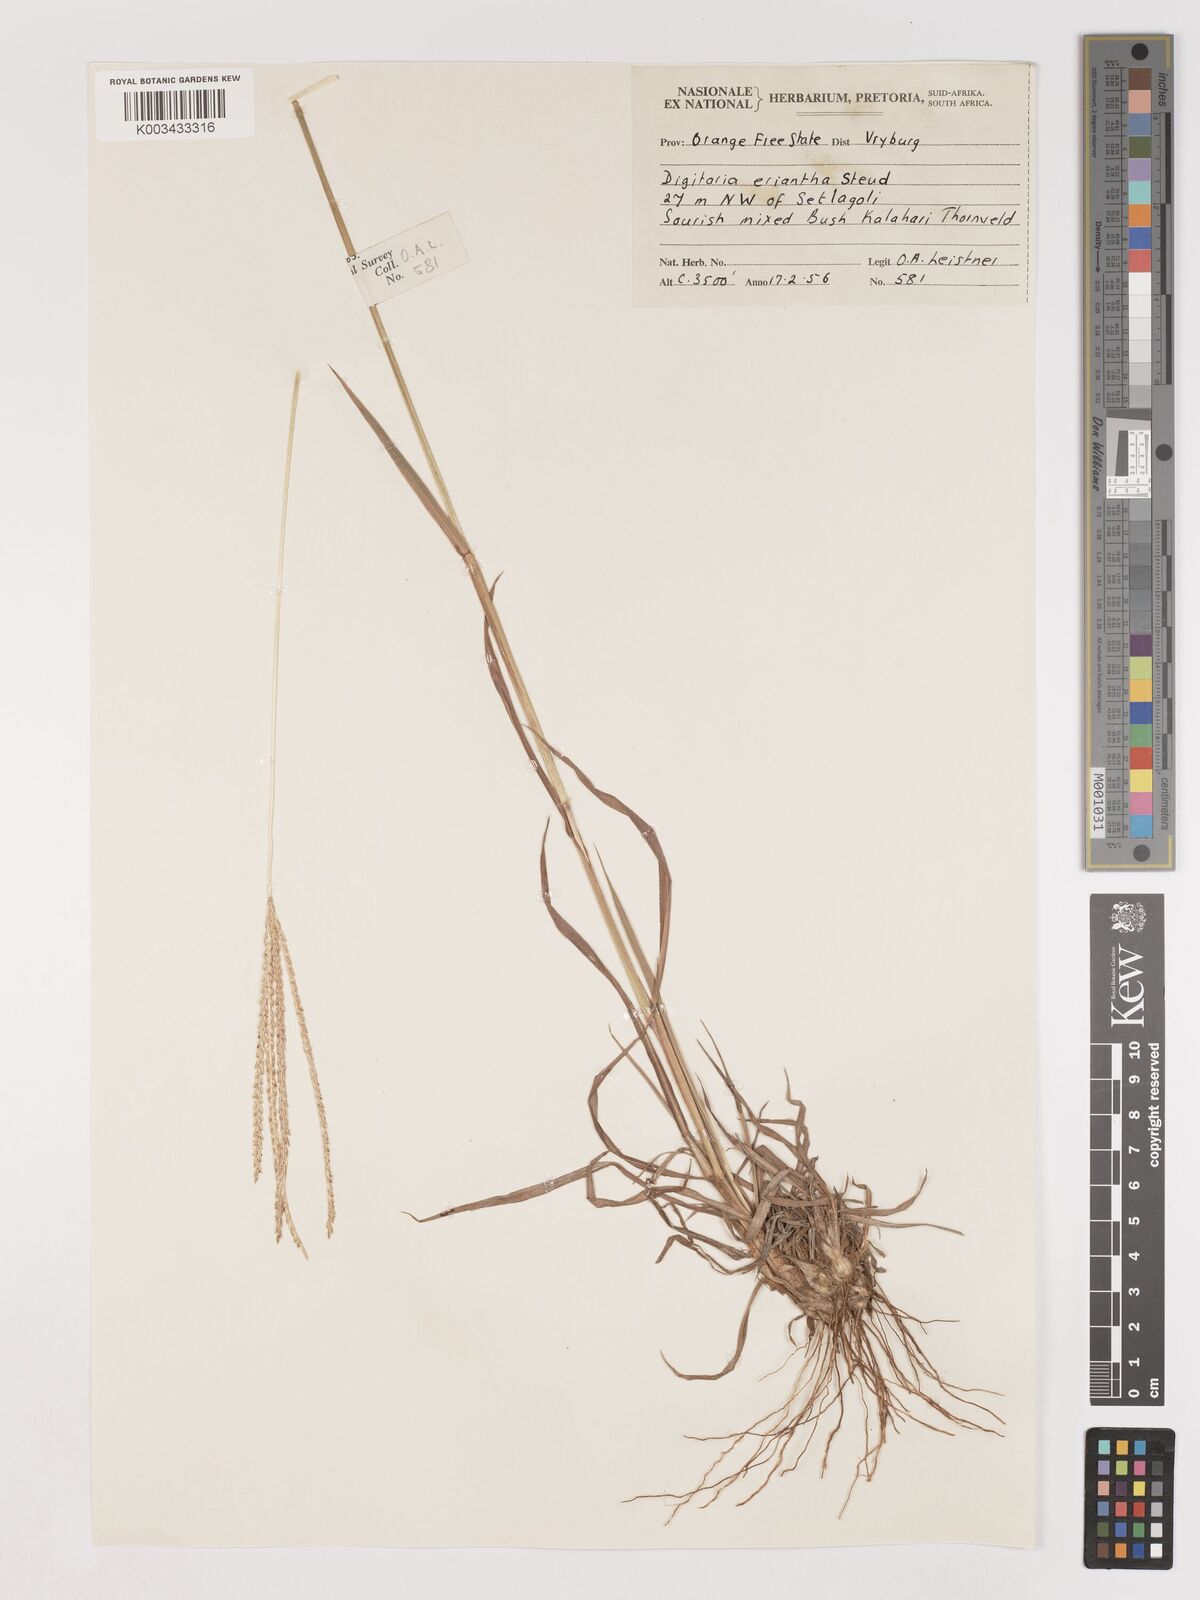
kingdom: Plantae
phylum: Tracheophyta
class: Liliopsida
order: Poales
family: Poaceae
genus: Digitaria
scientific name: Digitaria eriantha
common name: Digitgrass
